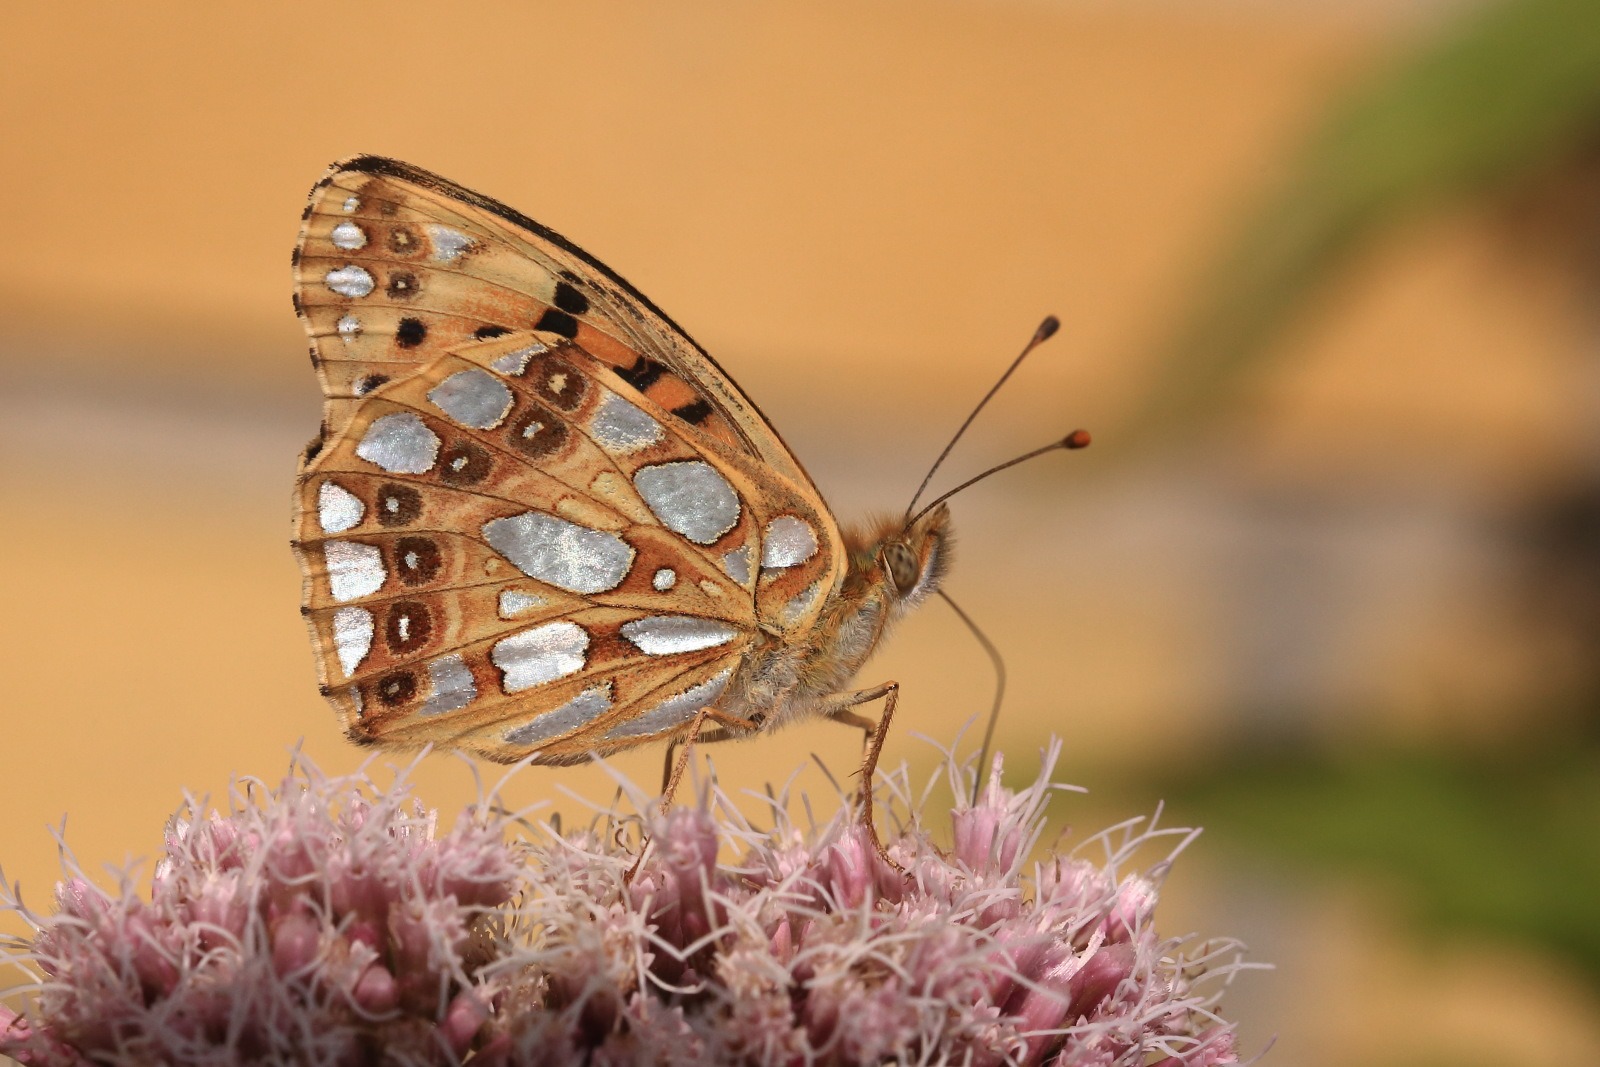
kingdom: Animalia
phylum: Arthropoda
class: Insecta
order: Lepidoptera
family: Nymphalidae
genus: Issoria
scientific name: Issoria lathonia
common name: Storplettet perlemorsommerfugl
